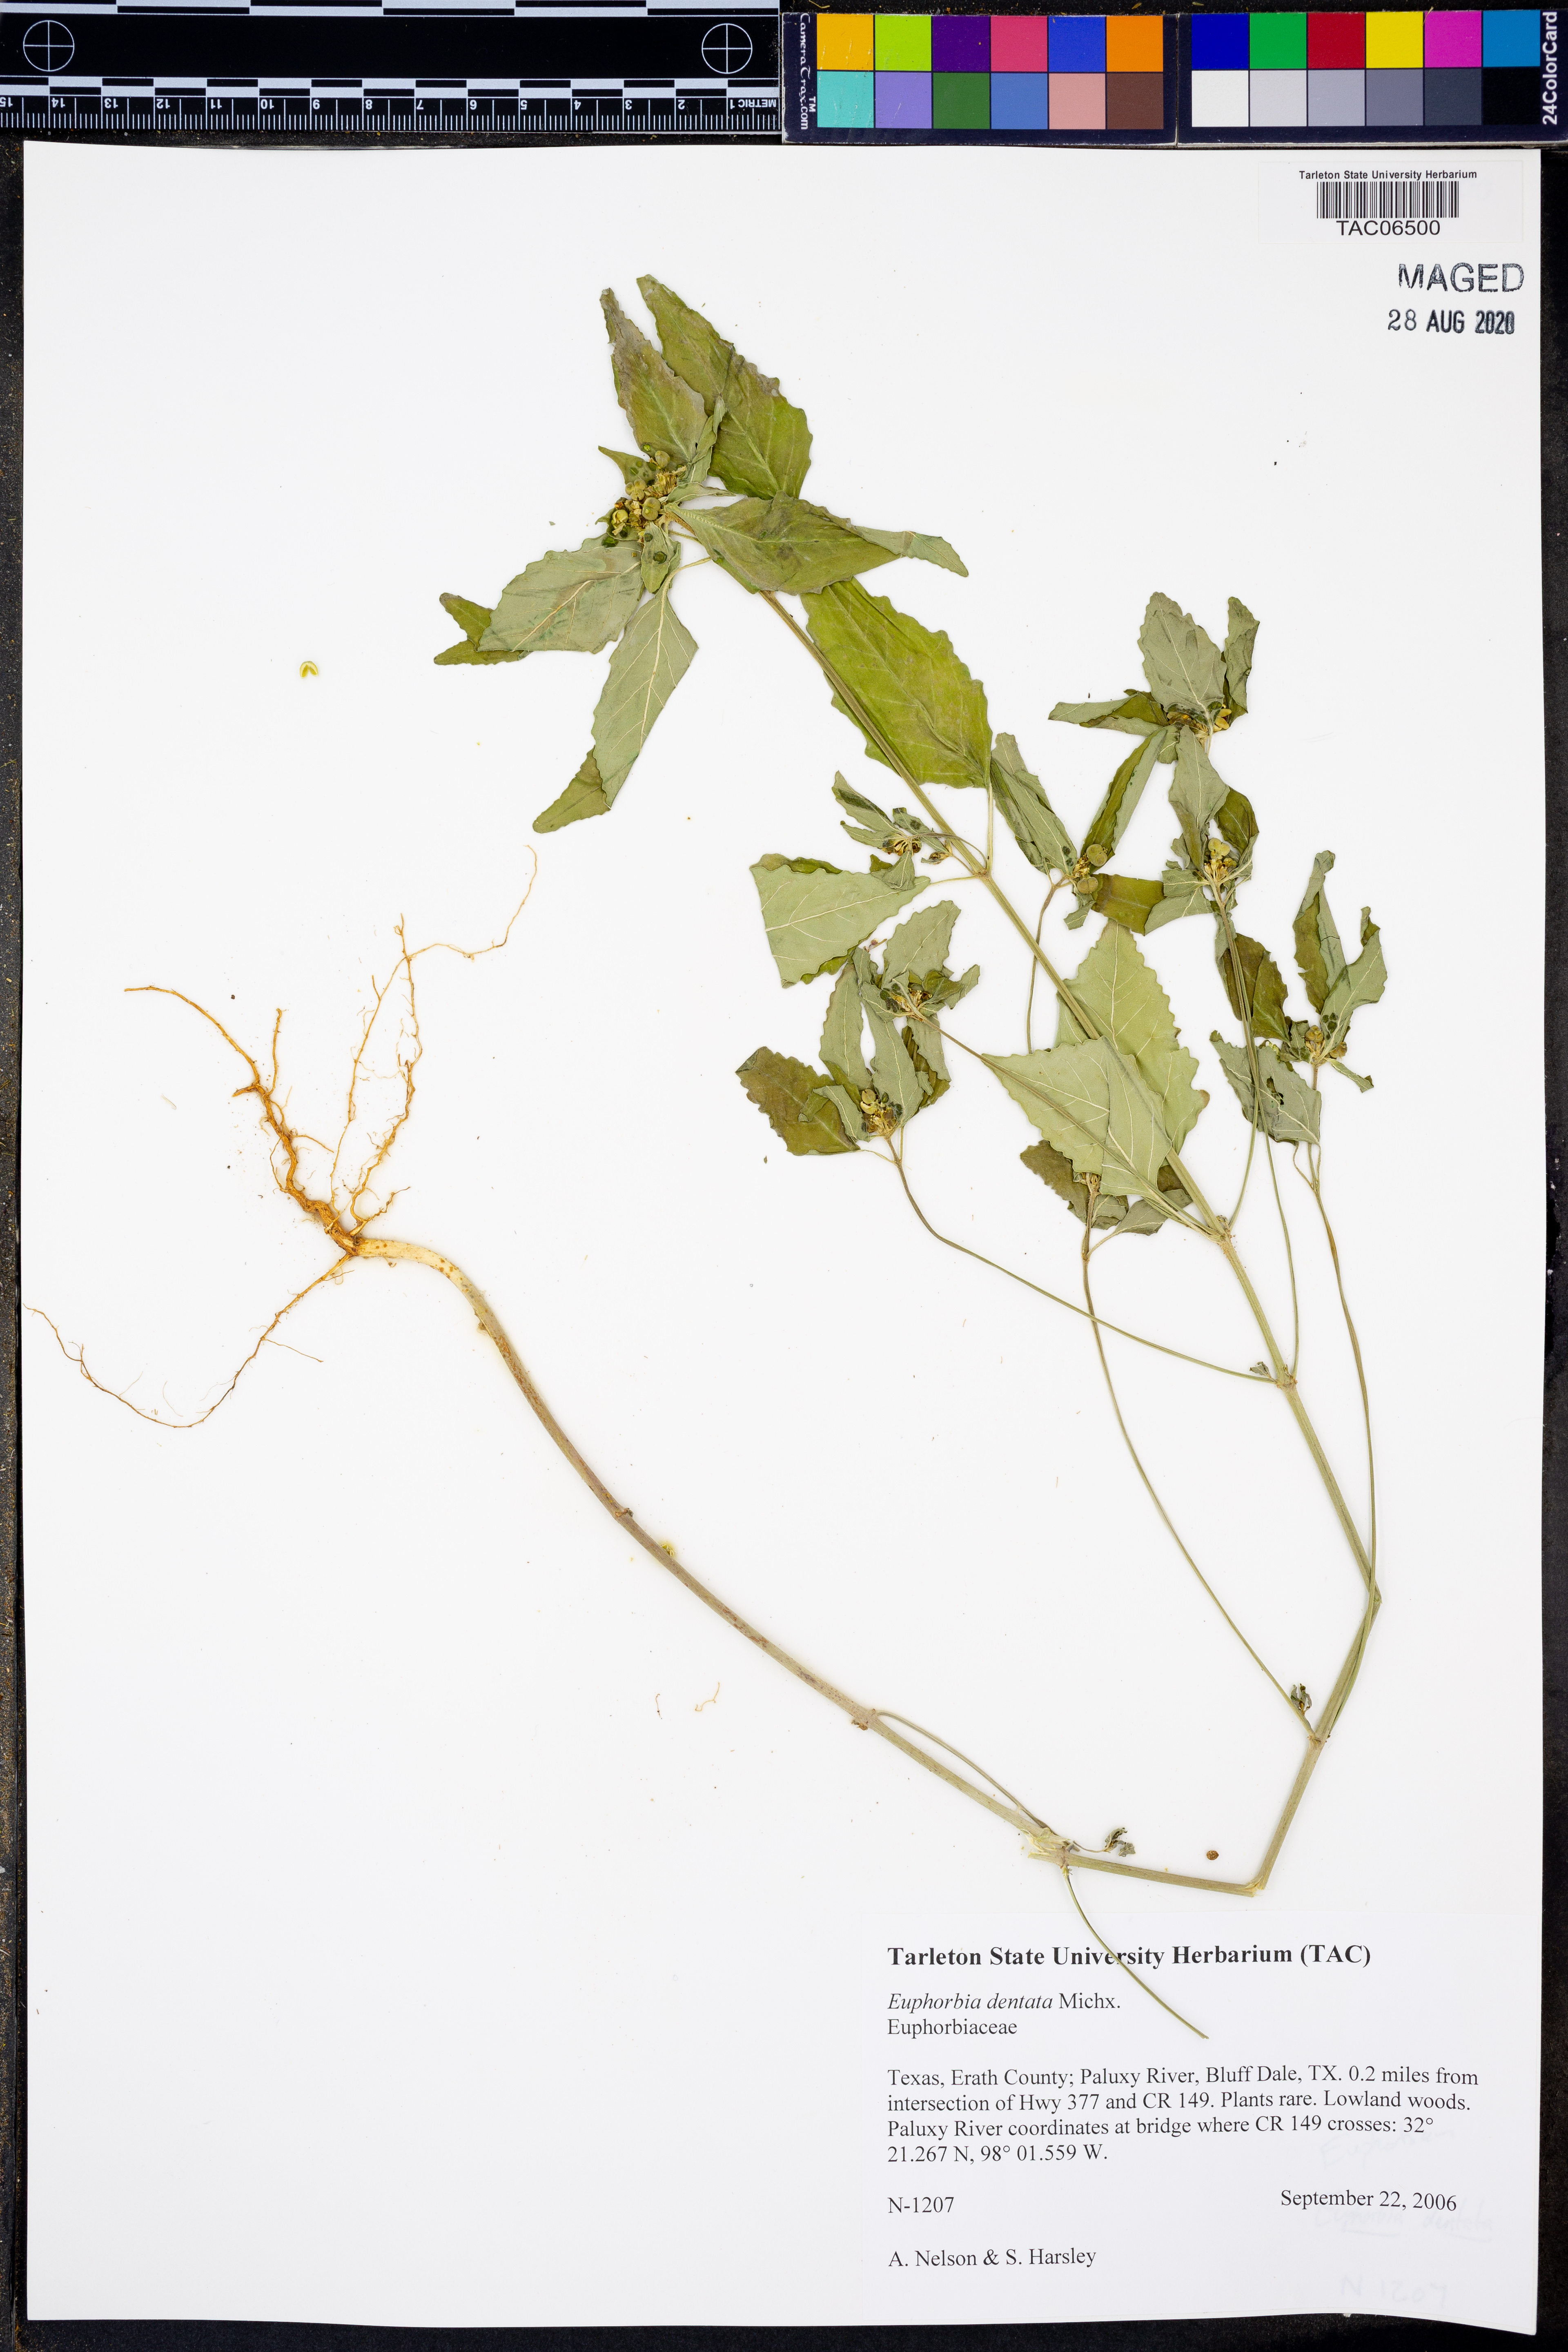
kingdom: Plantae
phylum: Tracheophyta
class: Magnoliopsida
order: Malpighiales
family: Euphorbiaceae
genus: Euphorbia
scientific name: Euphorbia dentata
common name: Dentate spurge
